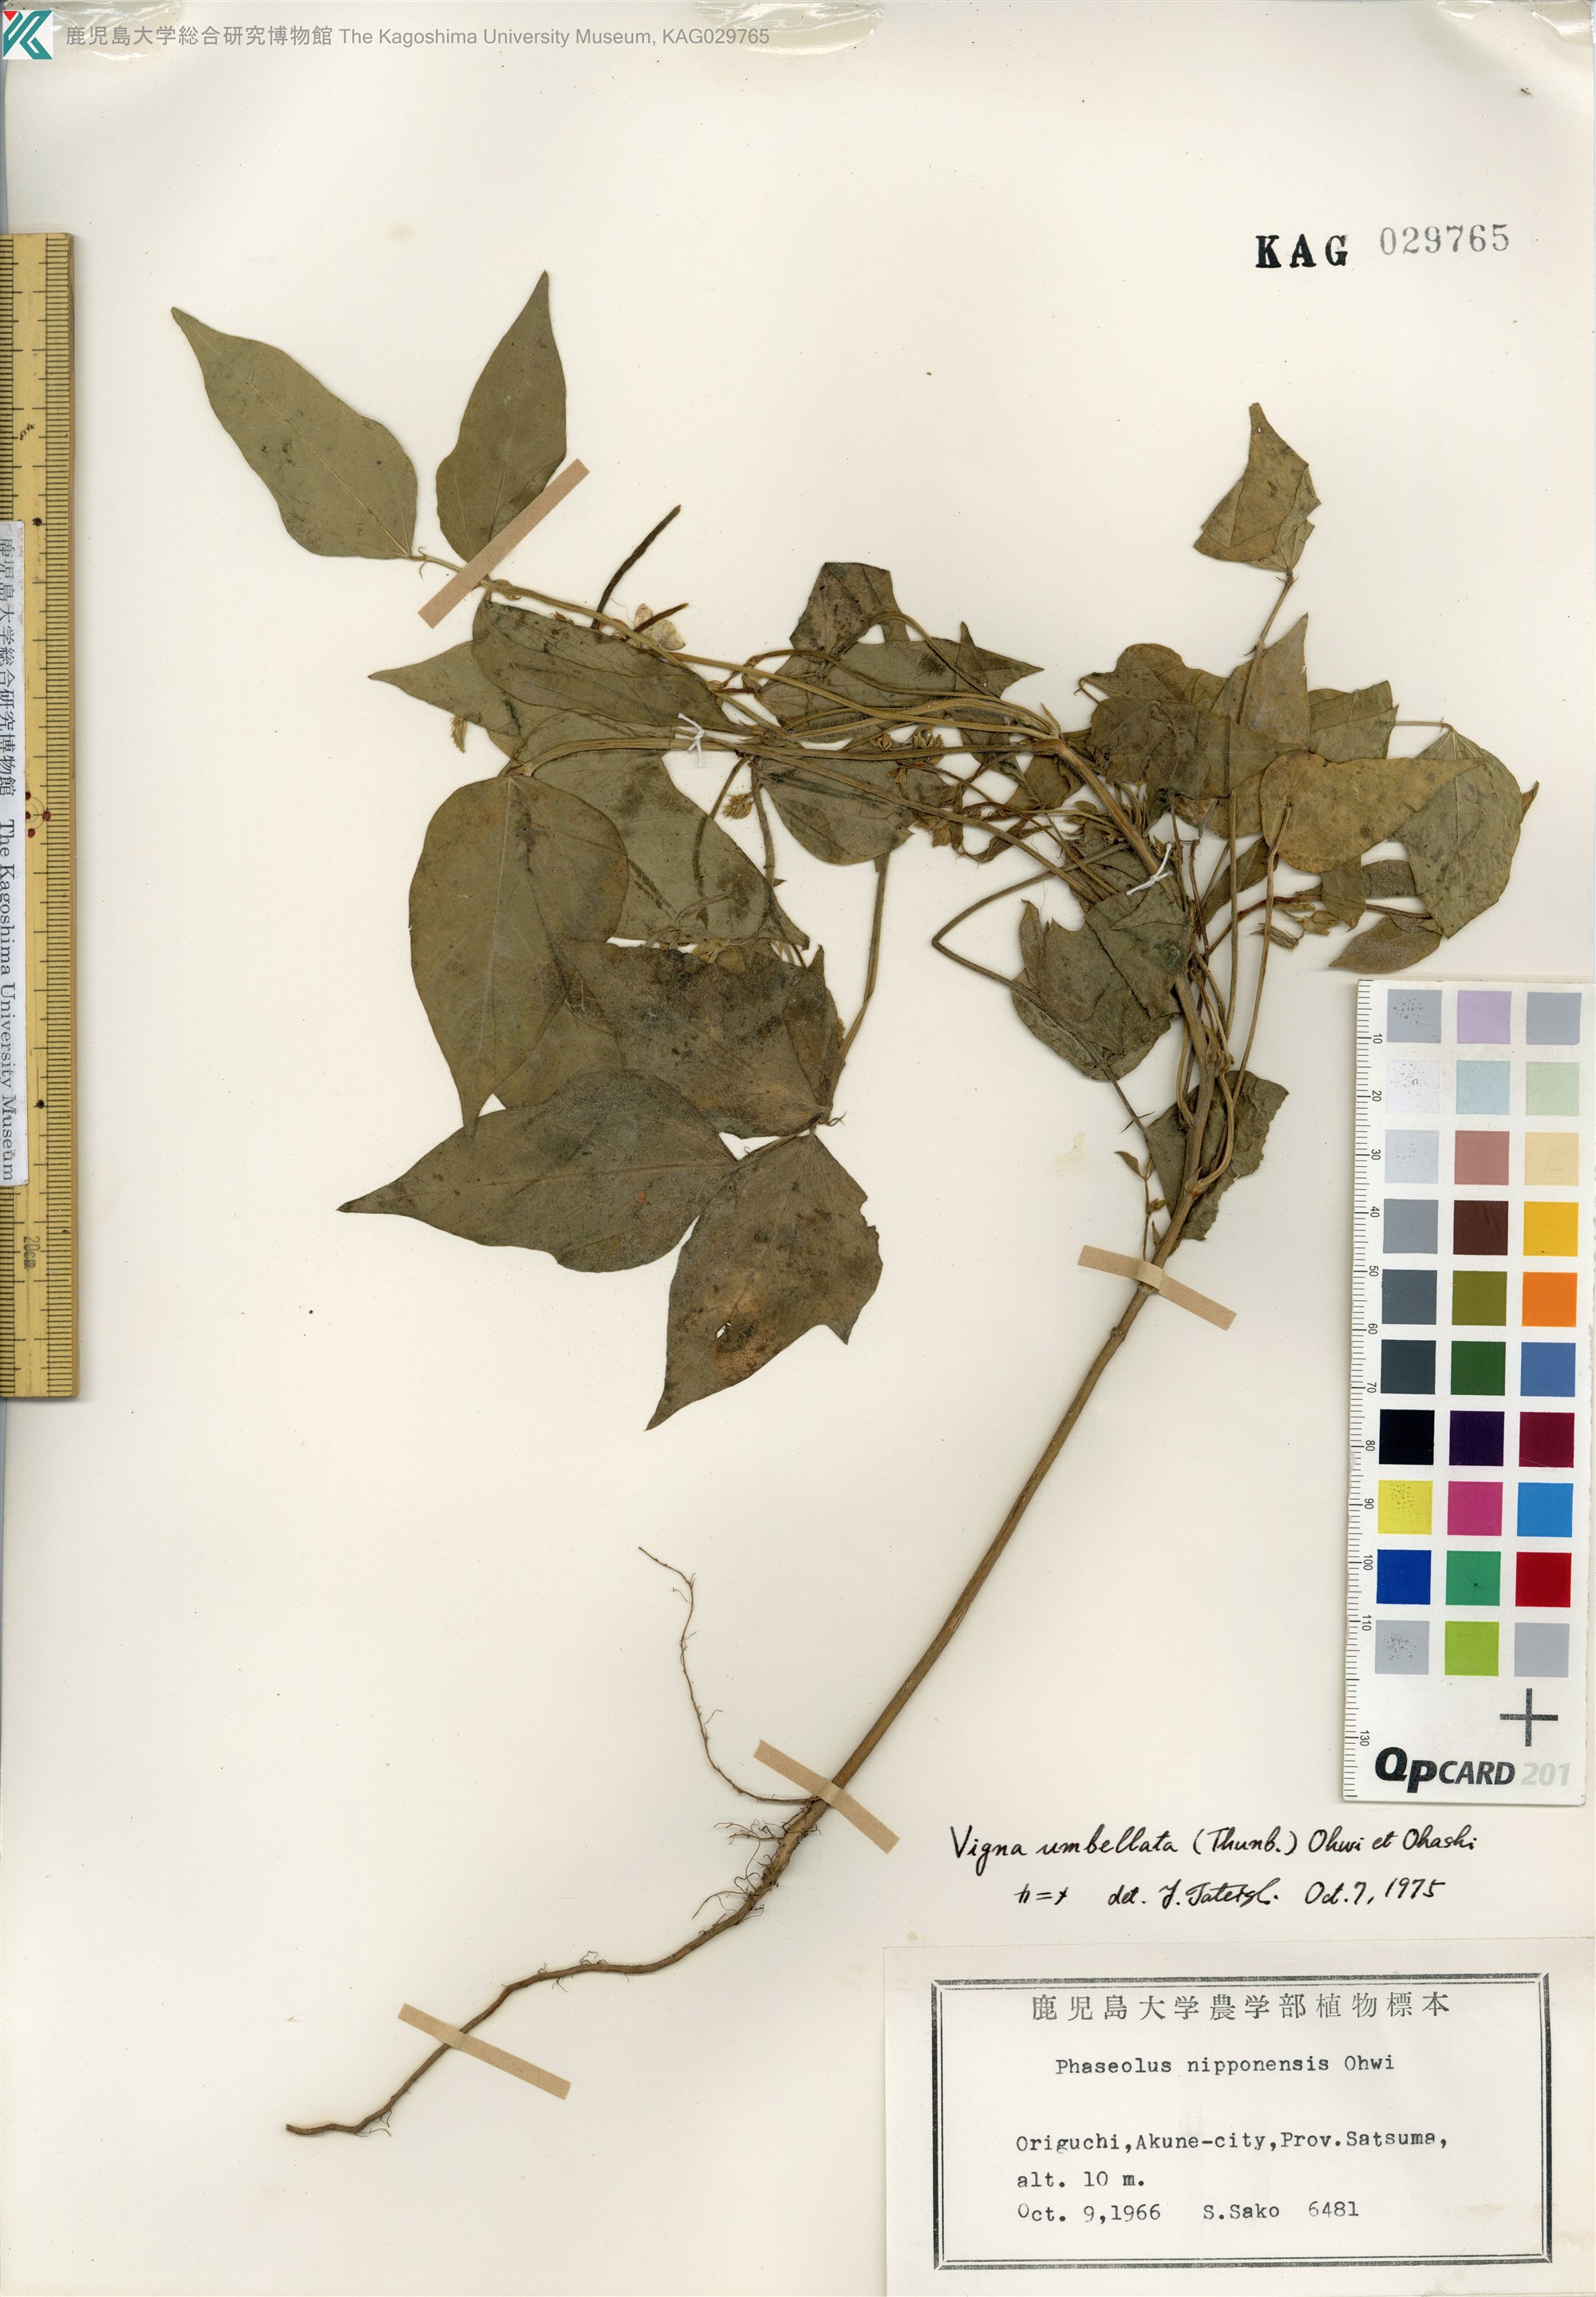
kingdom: Plantae
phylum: Tracheophyta
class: Magnoliopsida
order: Fabales
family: Fabaceae
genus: Vigna
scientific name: Vigna umbellata
